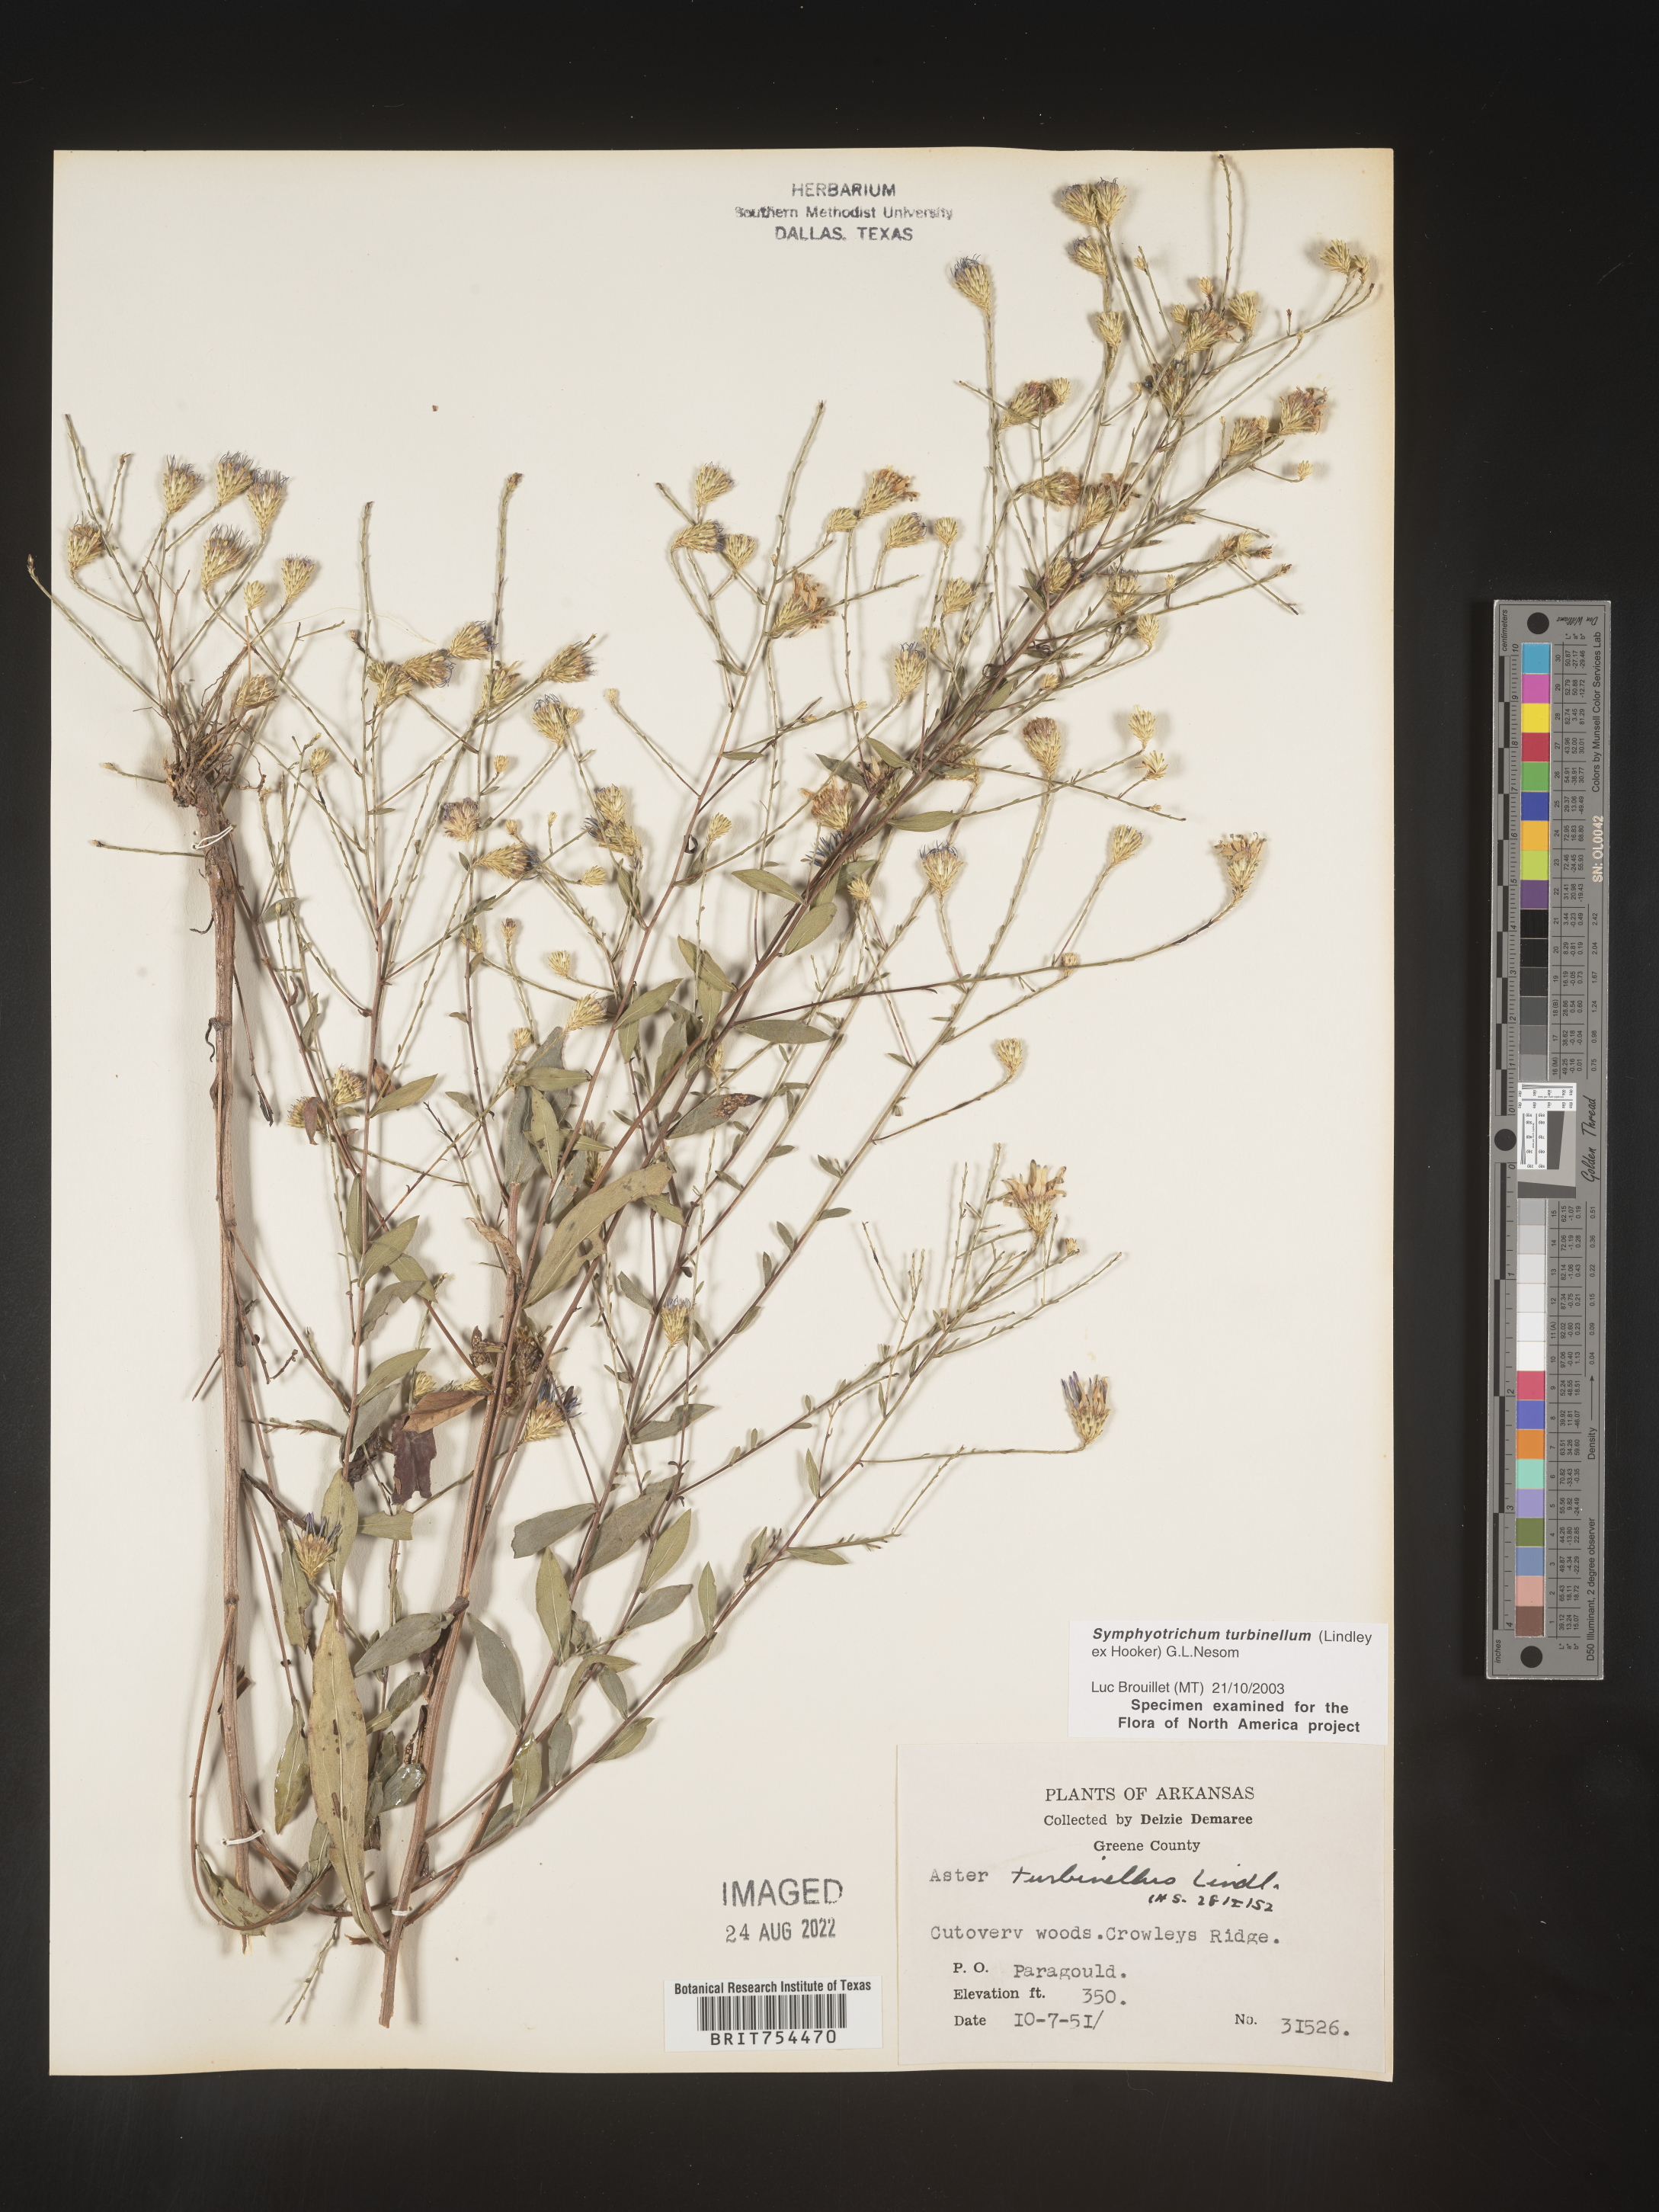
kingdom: Plantae
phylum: Tracheophyta
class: Magnoliopsida
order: Asterales
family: Asteraceae
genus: Symphyotrichum
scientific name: Symphyotrichum turbinellum
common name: Prairie aster
